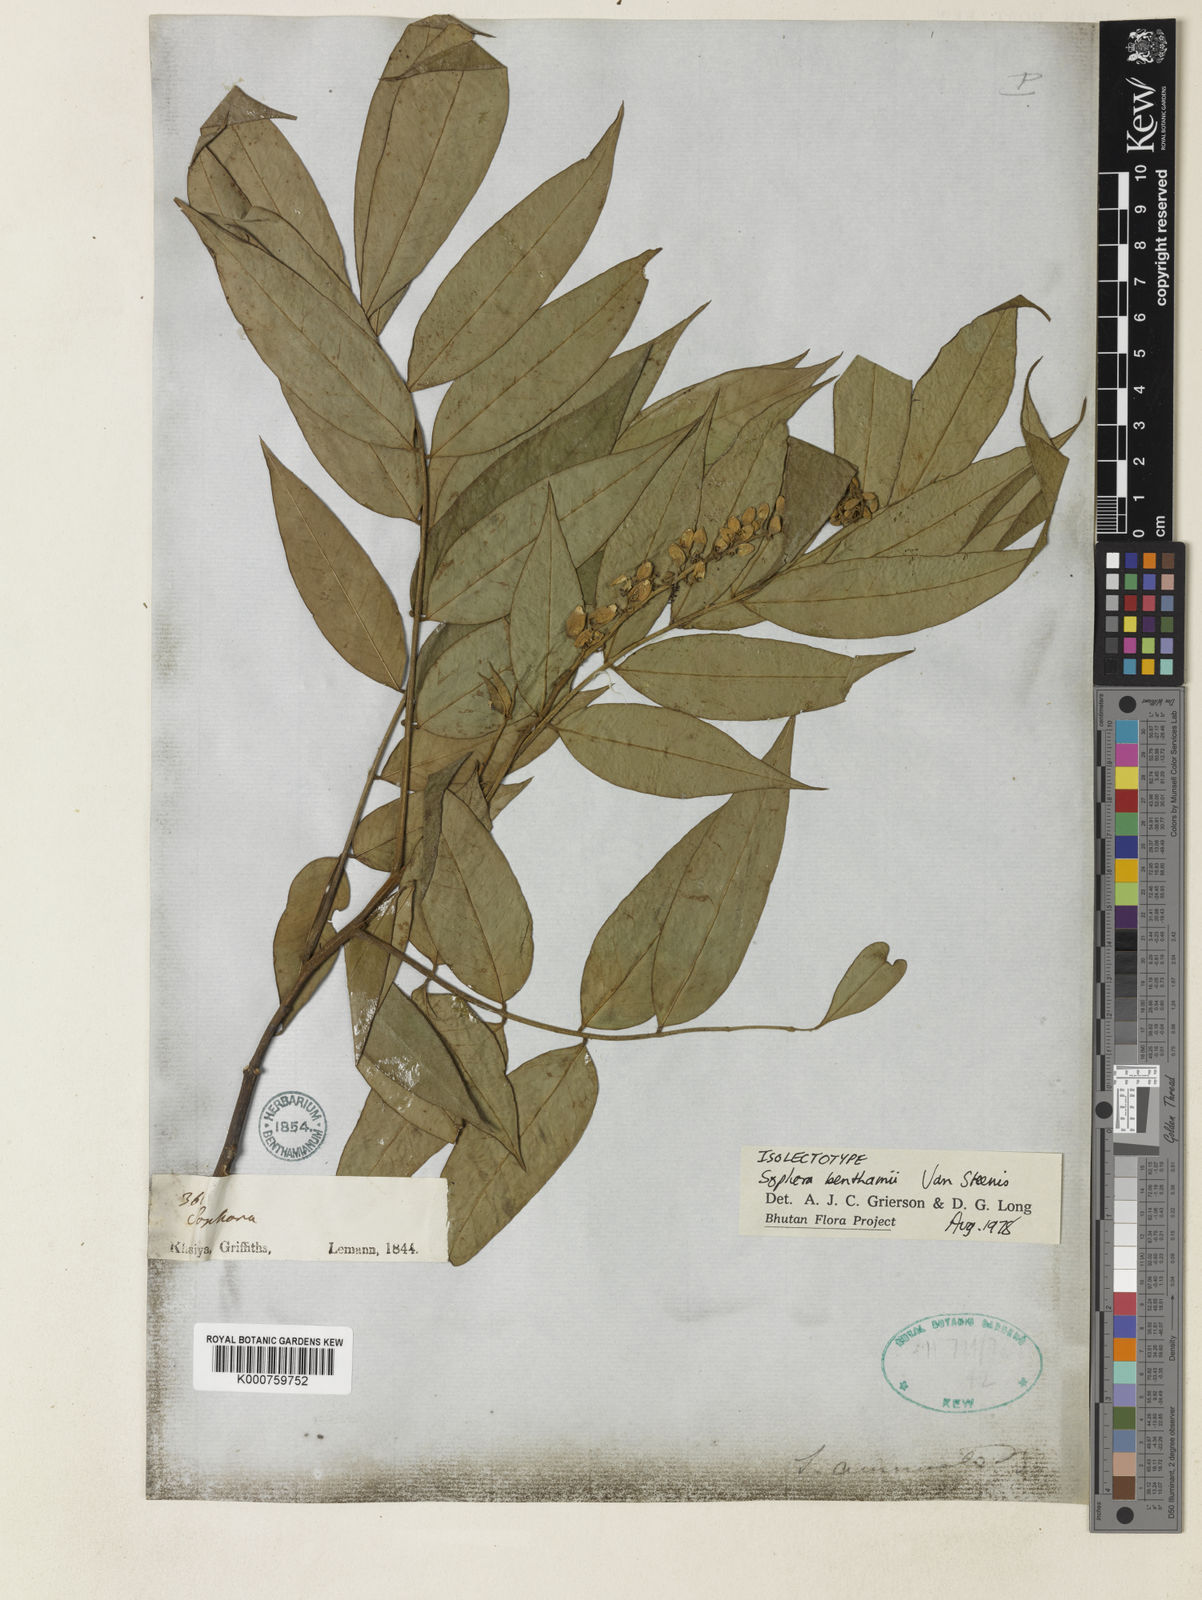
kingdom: Plantae
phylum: Tracheophyta
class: Magnoliopsida
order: Fabales
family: Fabaceae
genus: Sophora
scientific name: Sophora benthamii
